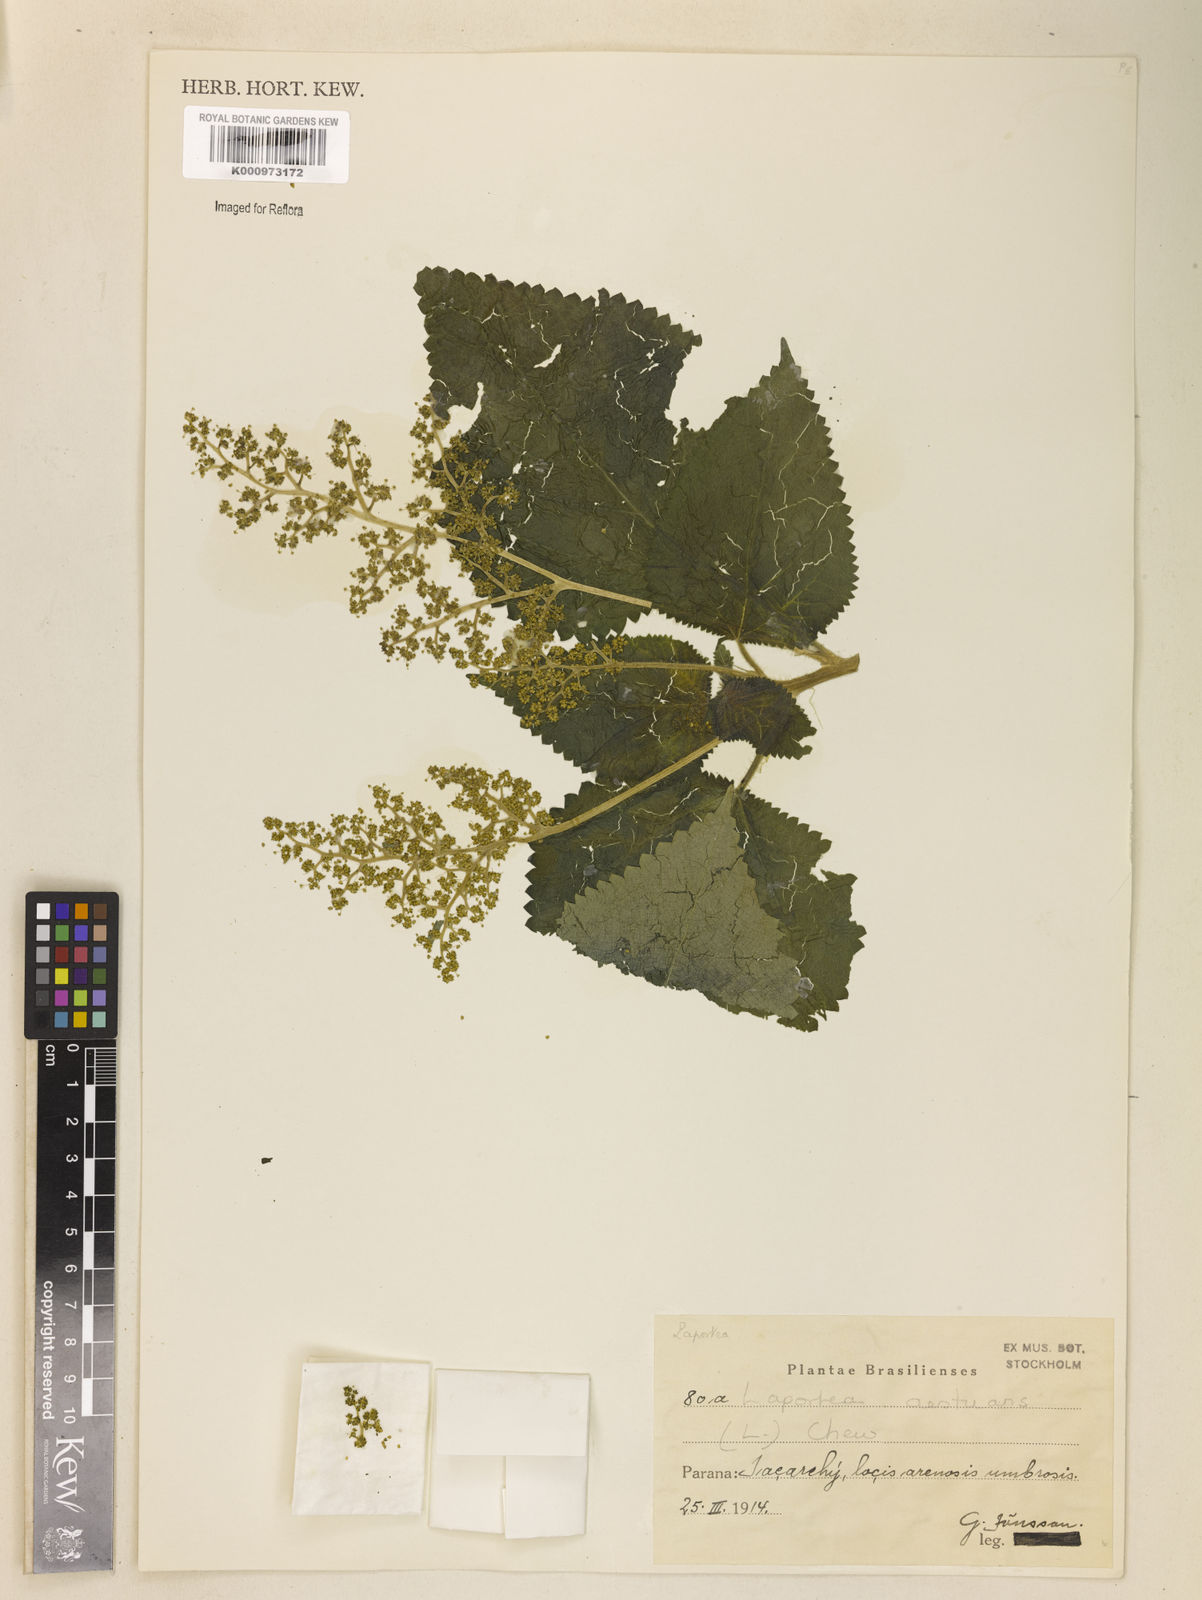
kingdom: Plantae
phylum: Tracheophyta
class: Magnoliopsida
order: Rosales
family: Urticaceae
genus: Laportea
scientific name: Laportea aestuans
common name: West indian woodnettle
